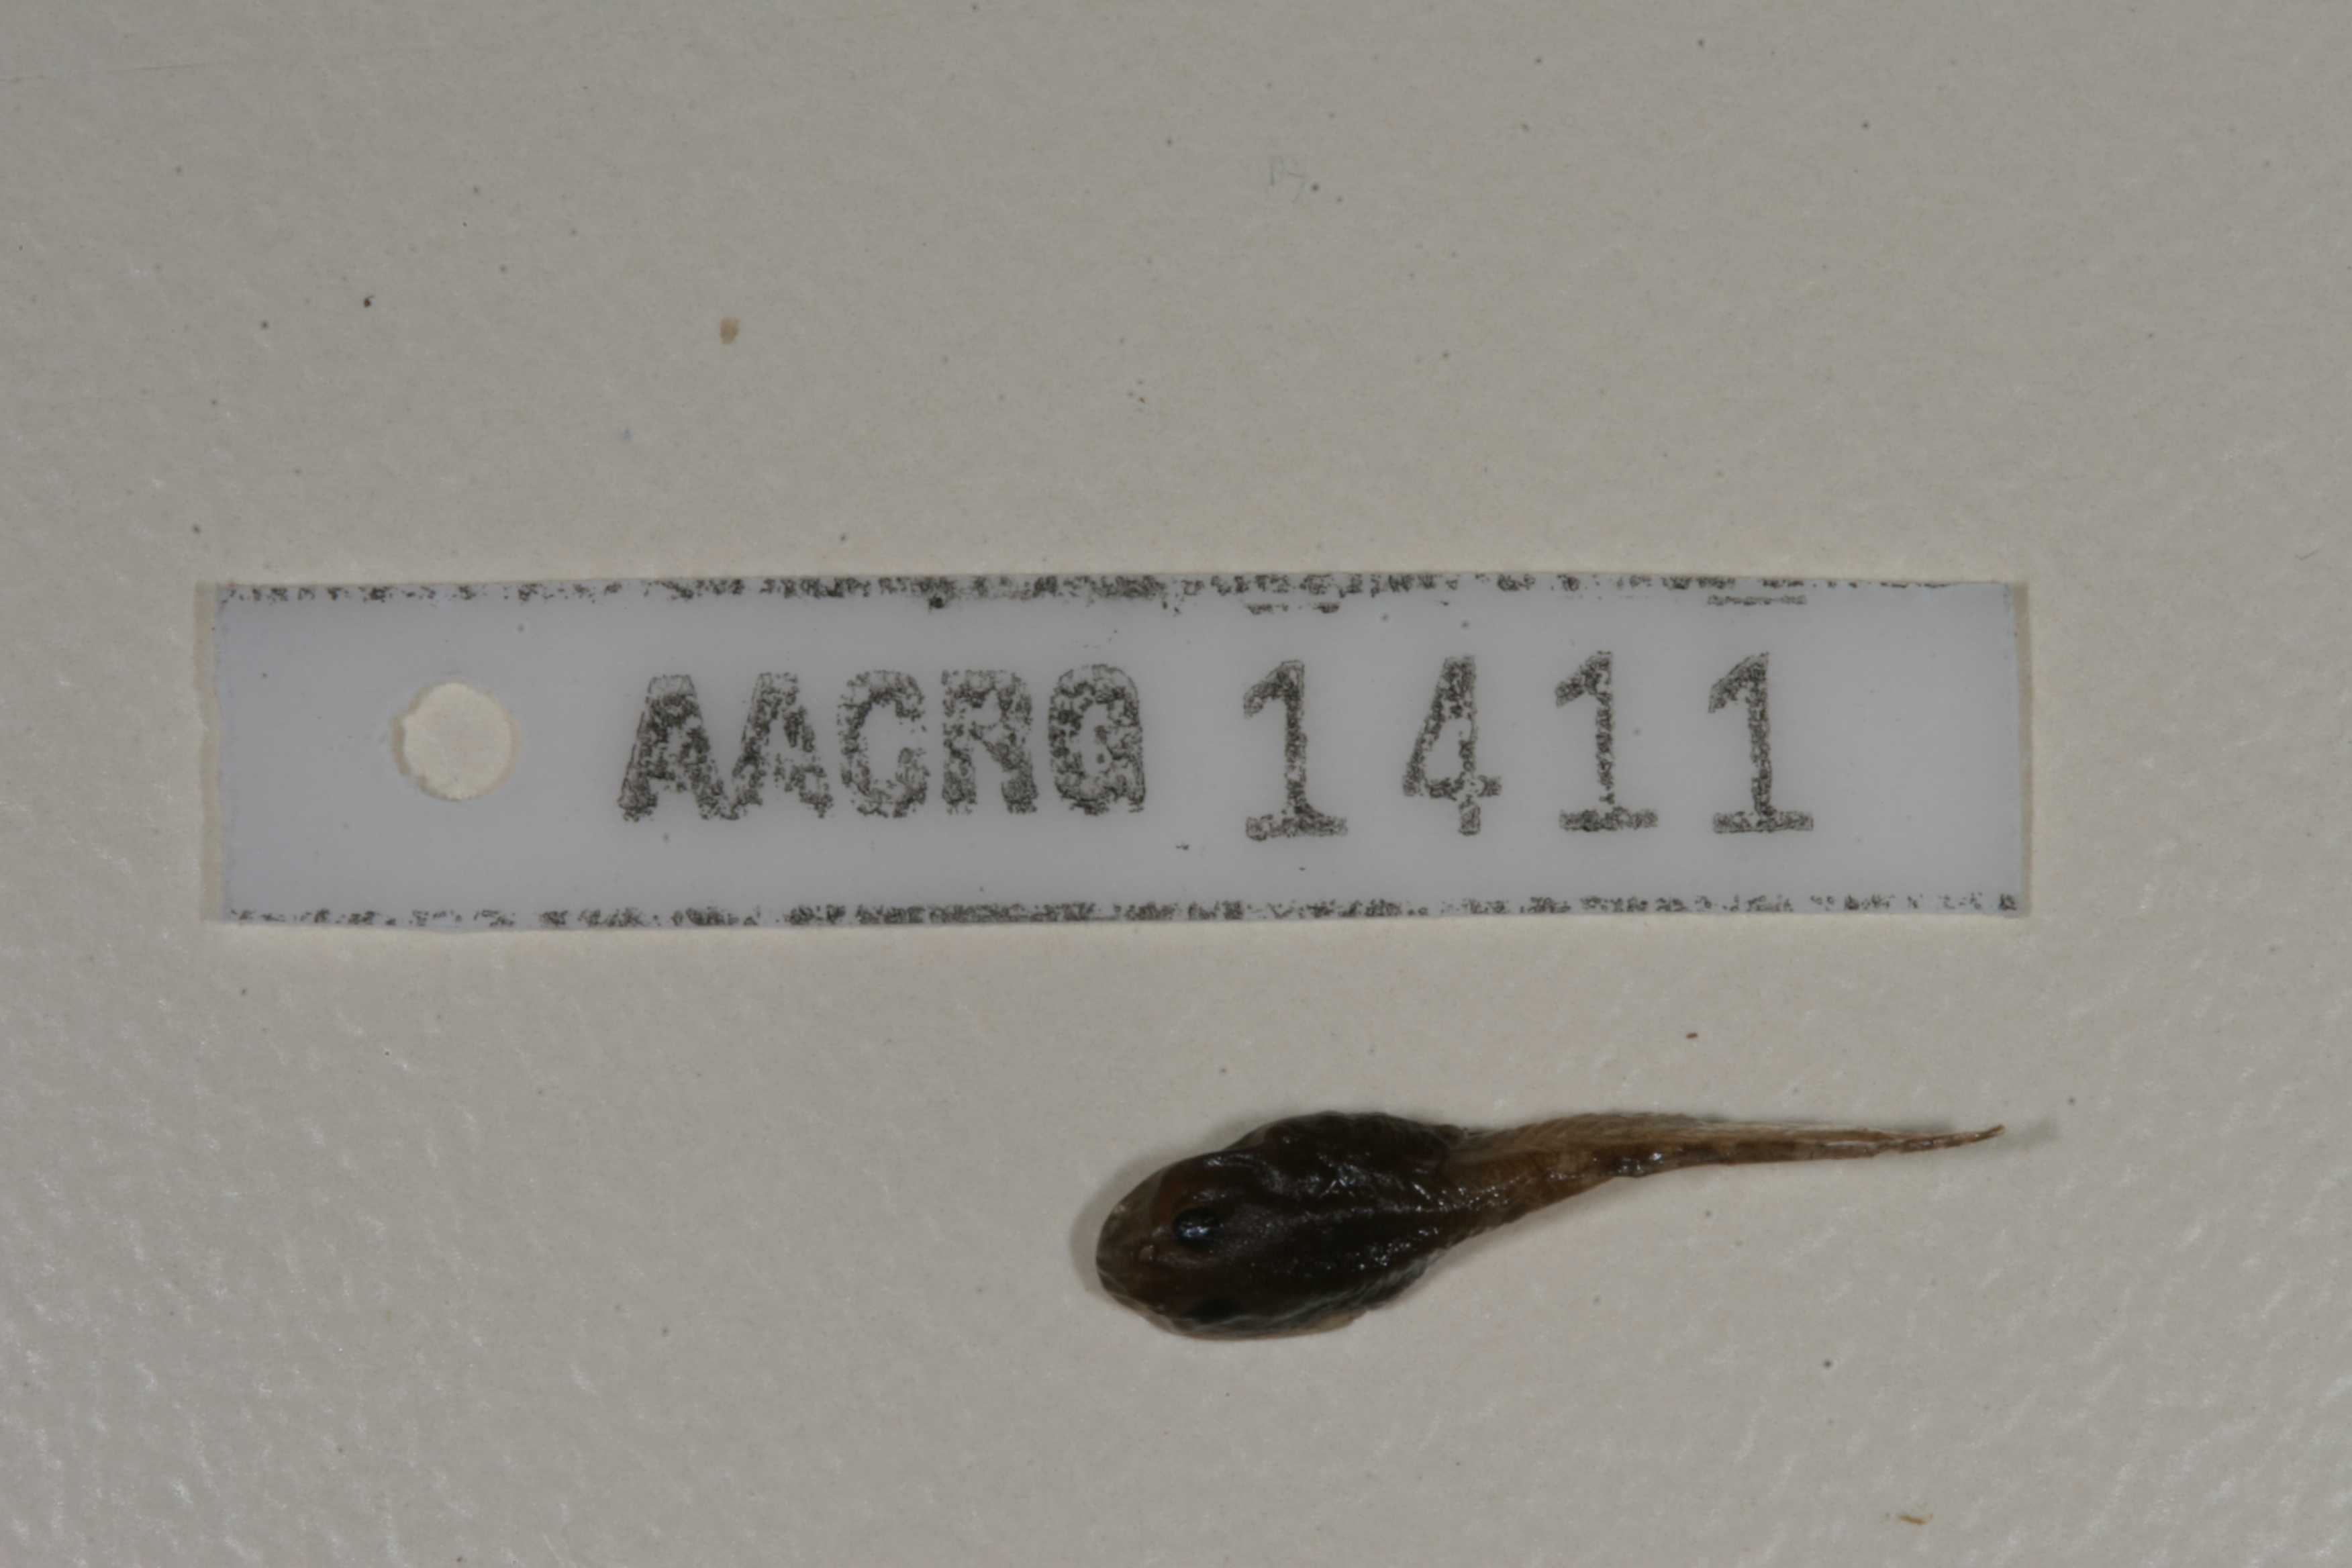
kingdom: Animalia
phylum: Chordata
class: Amphibia
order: Anura
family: Bufonidae
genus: Sclerophrys
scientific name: Sclerophrys gutturalis
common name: African common toad
